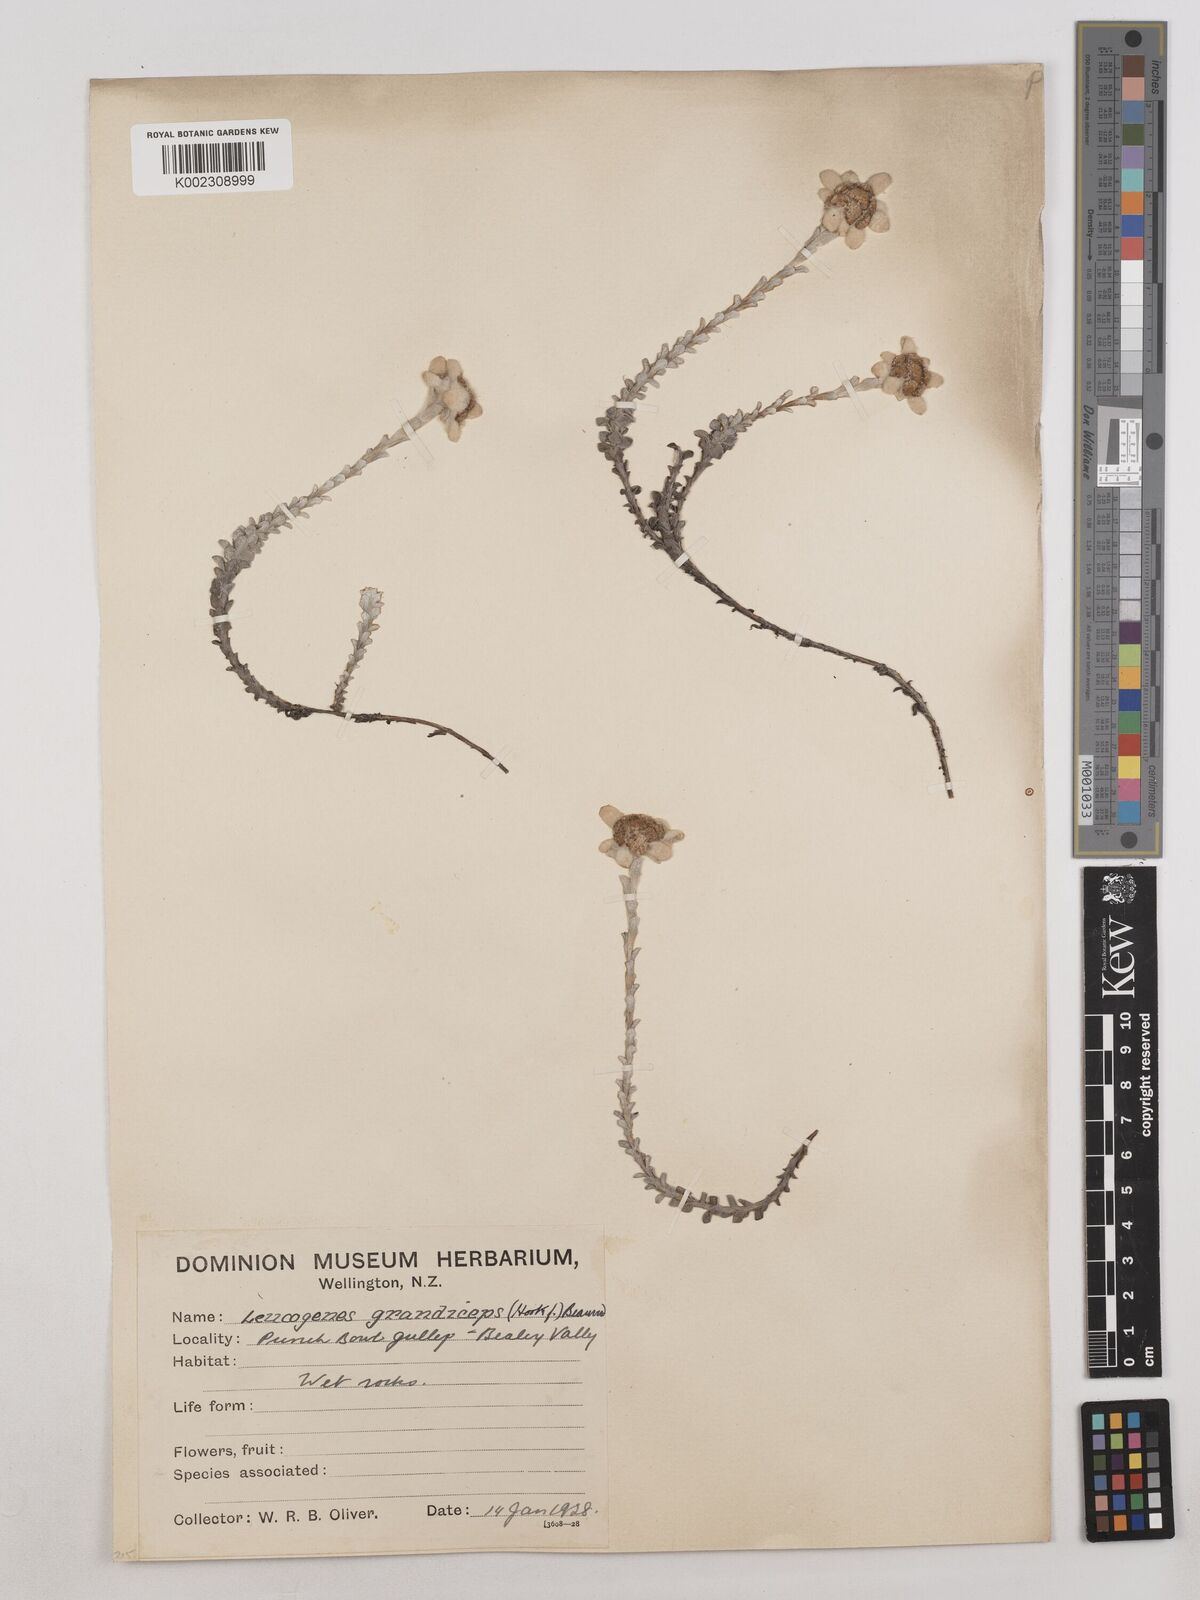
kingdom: Plantae
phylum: Tracheophyta
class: Magnoliopsida
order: Asterales
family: Asteraceae
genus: Leucogenes
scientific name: Leucogenes grandiceps
